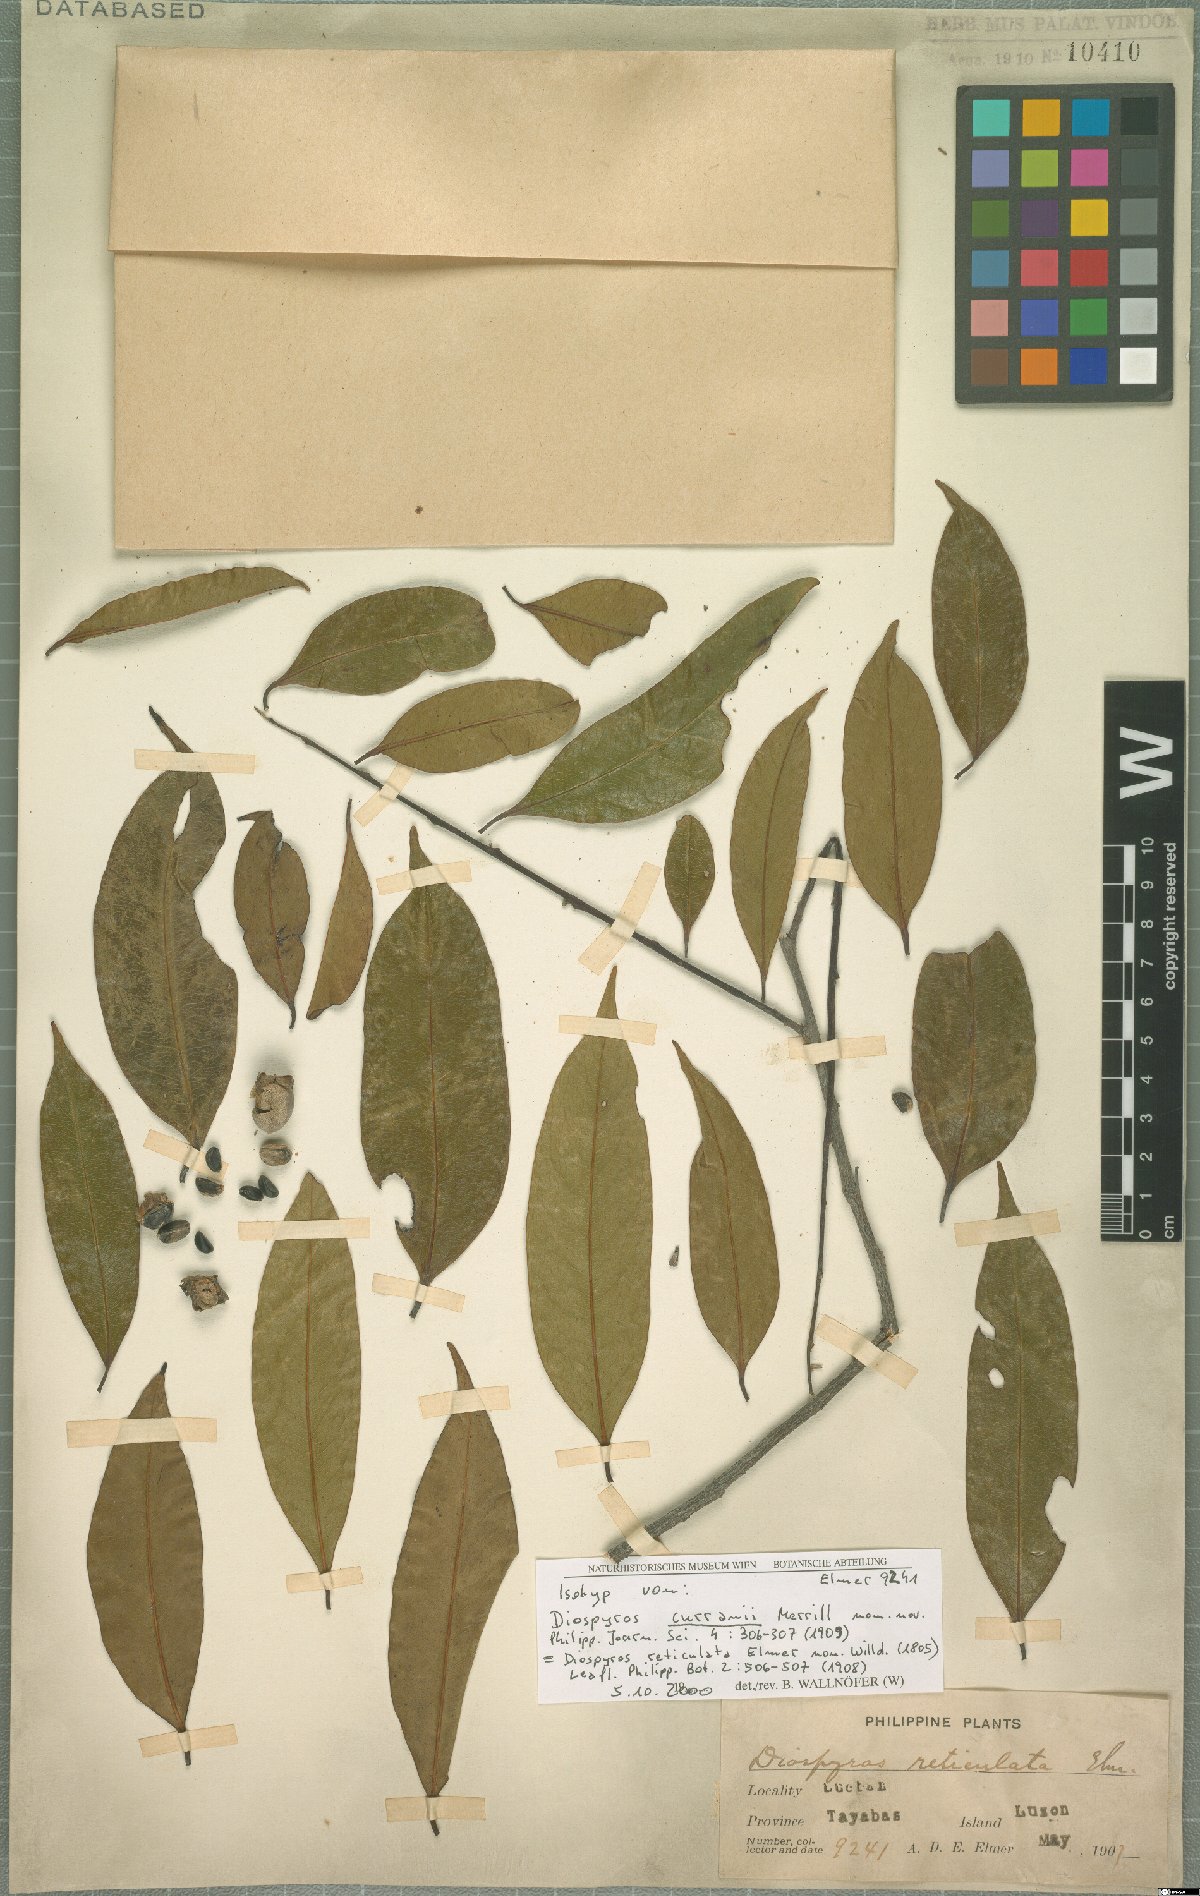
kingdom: Plantae
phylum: Tracheophyta
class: Magnoliopsida
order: Ericales
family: Ebenaceae
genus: Diospyros
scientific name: Diospyros curranii
